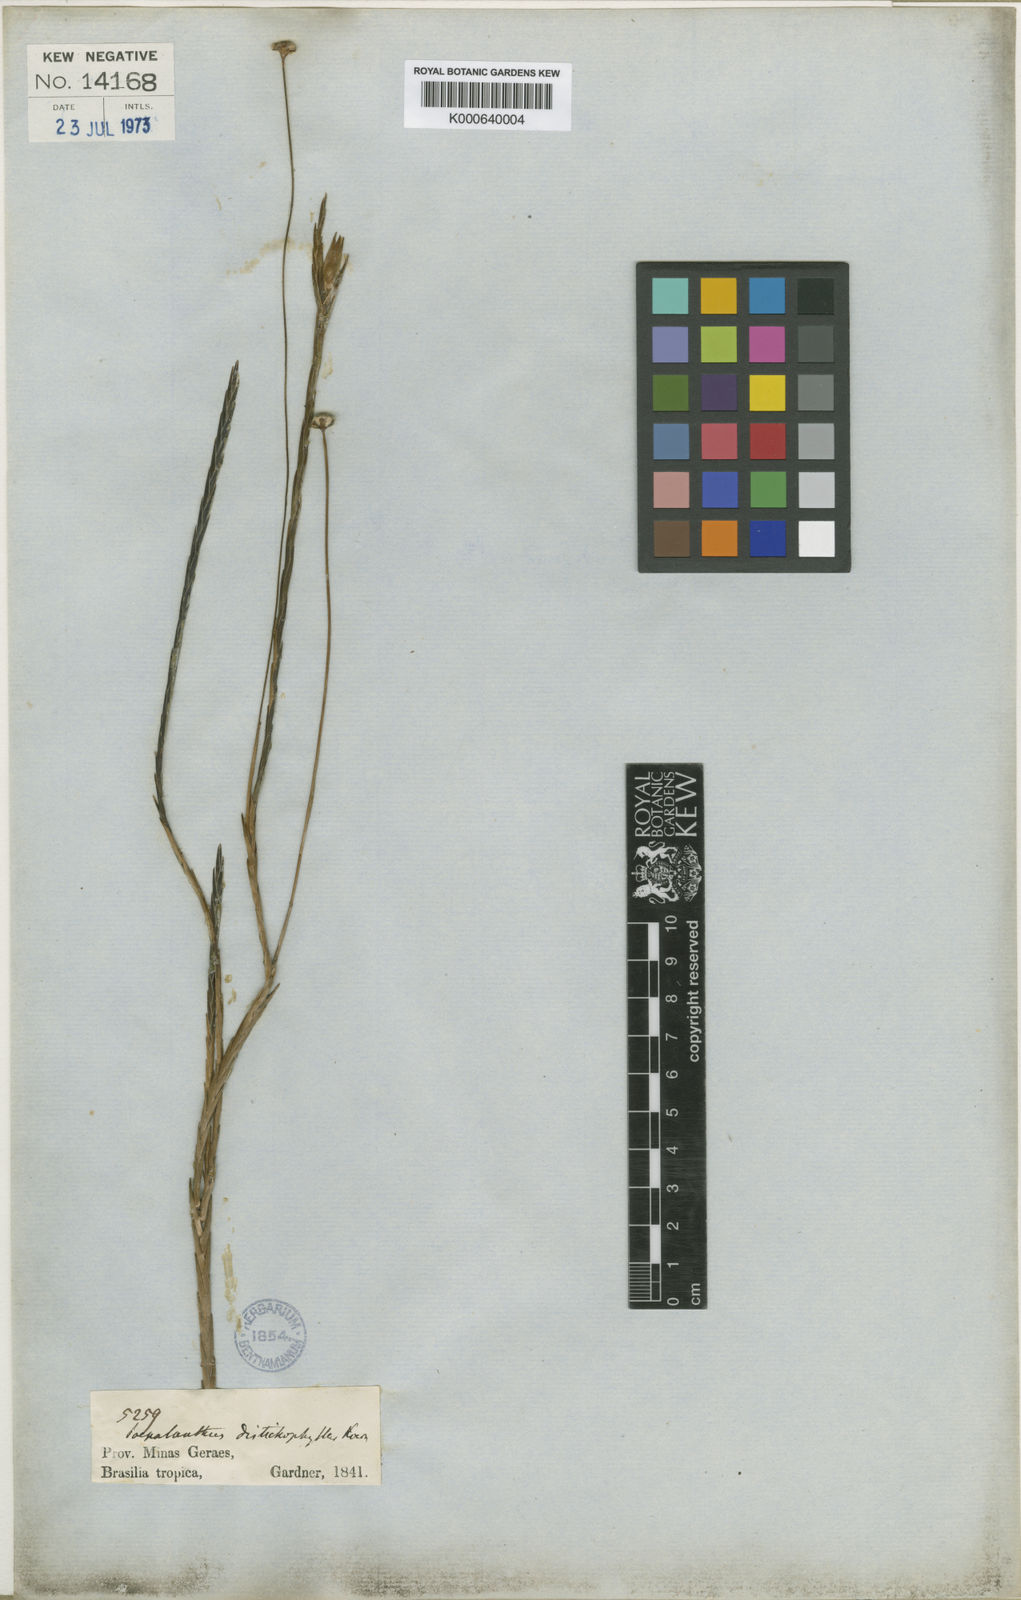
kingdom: Plantae
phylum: Tracheophyta
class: Liliopsida
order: Poales
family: Eriocaulaceae
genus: Paepalanthus
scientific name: Paepalanthus
